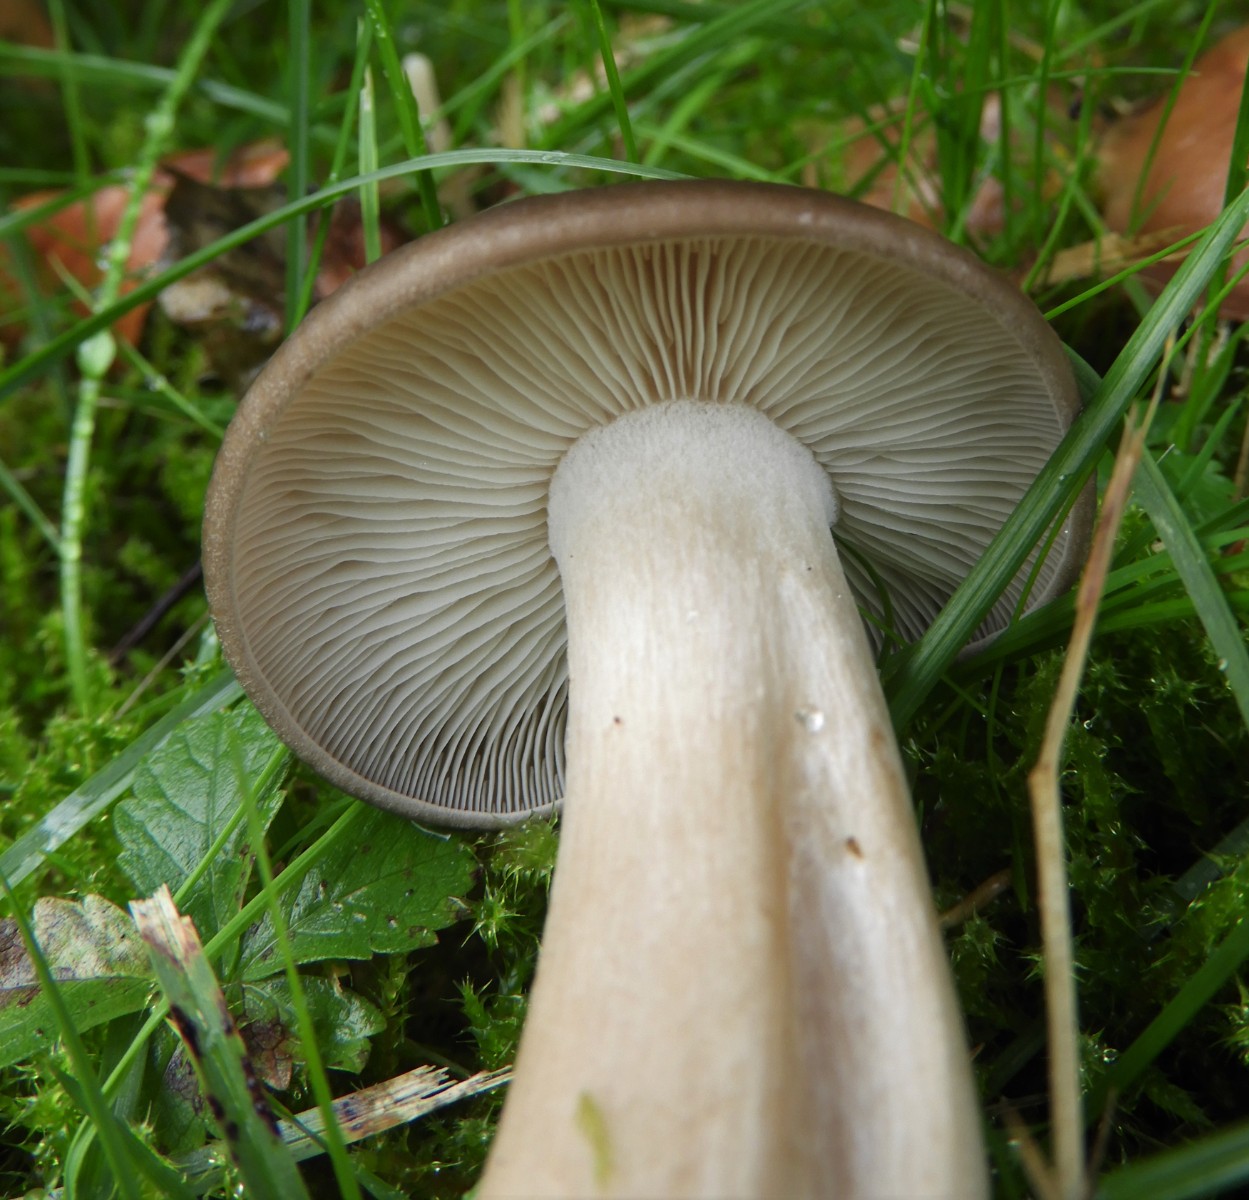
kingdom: Fungi
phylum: Basidiomycota
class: Agaricomycetes
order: Agaricales
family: Lyophyllaceae
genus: Lyophyllum
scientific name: Lyophyllum decastes
